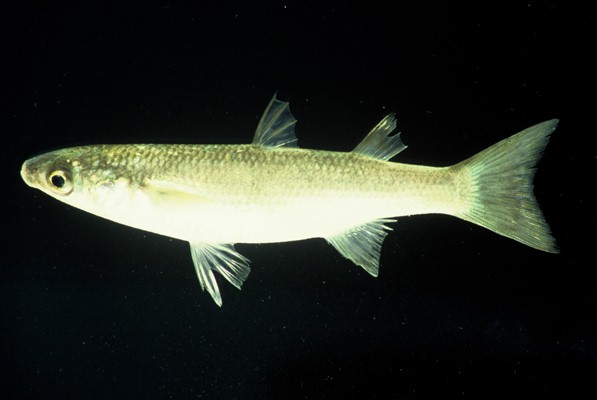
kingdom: Animalia
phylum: Chordata
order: Mugiliformes
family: Mugilidae
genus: Pseudomyxus
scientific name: Pseudomyxus capensis
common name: Freshwater mullet
